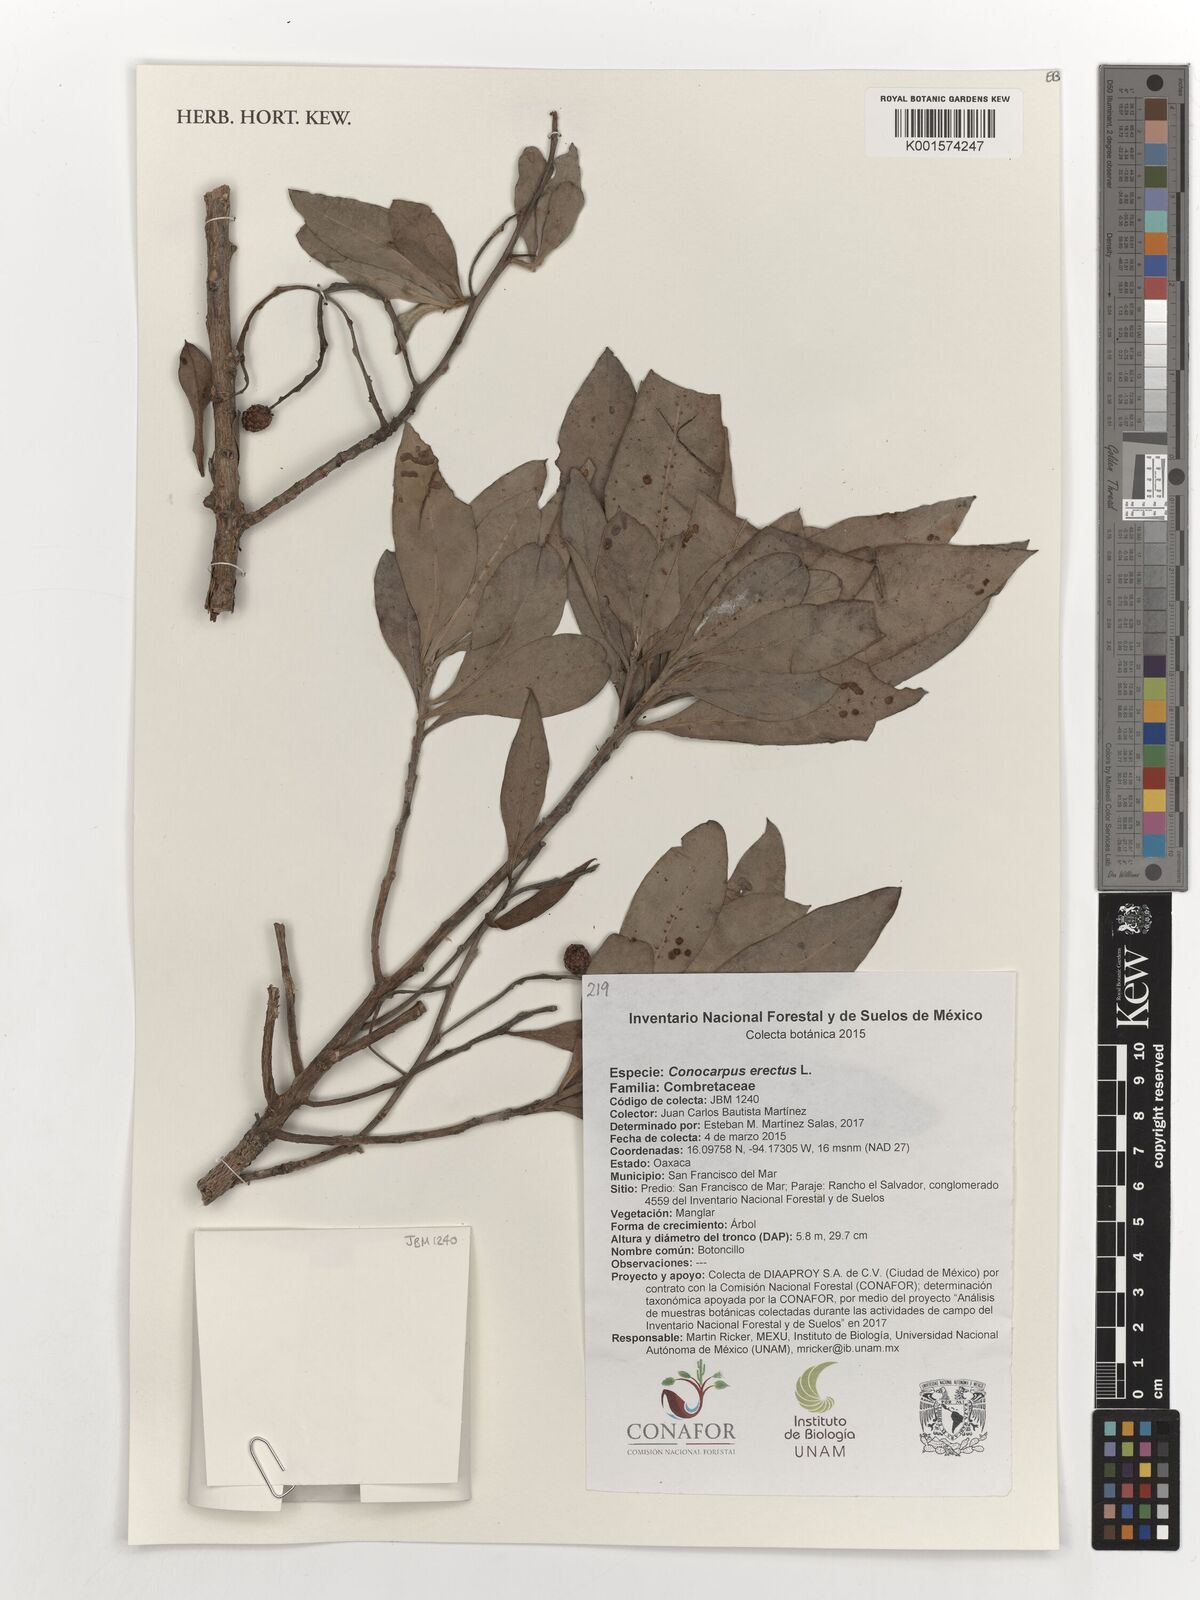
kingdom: Plantae
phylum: Tracheophyta
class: Magnoliopsida
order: Myrtales
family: Combretaceae
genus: Conocarpus
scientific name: Conocarpus erectus
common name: Button mangrove
